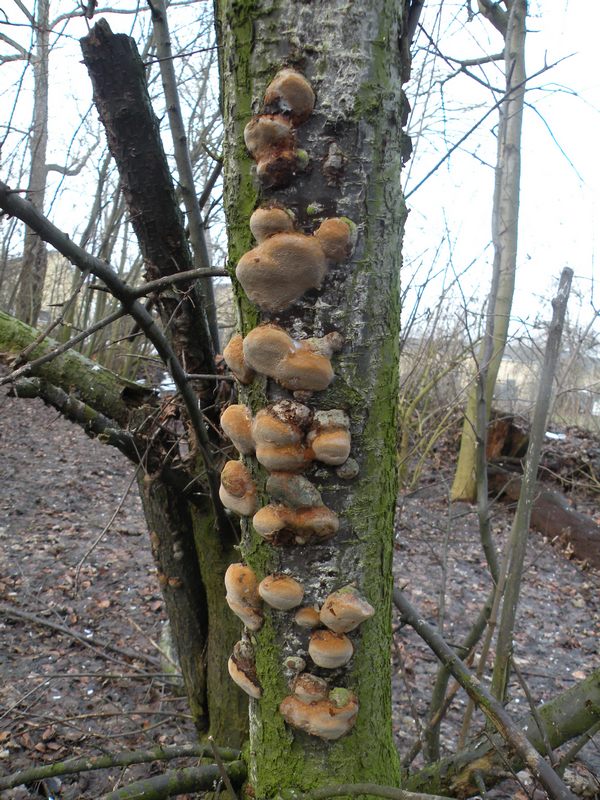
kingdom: Fungi
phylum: Basidiomycota
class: Agaricomycetes
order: Hymenochaetales
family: Hymenochaetaceae
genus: Phellinus
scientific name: Phellinus pomaceus
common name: blomme-ildporesvamp
